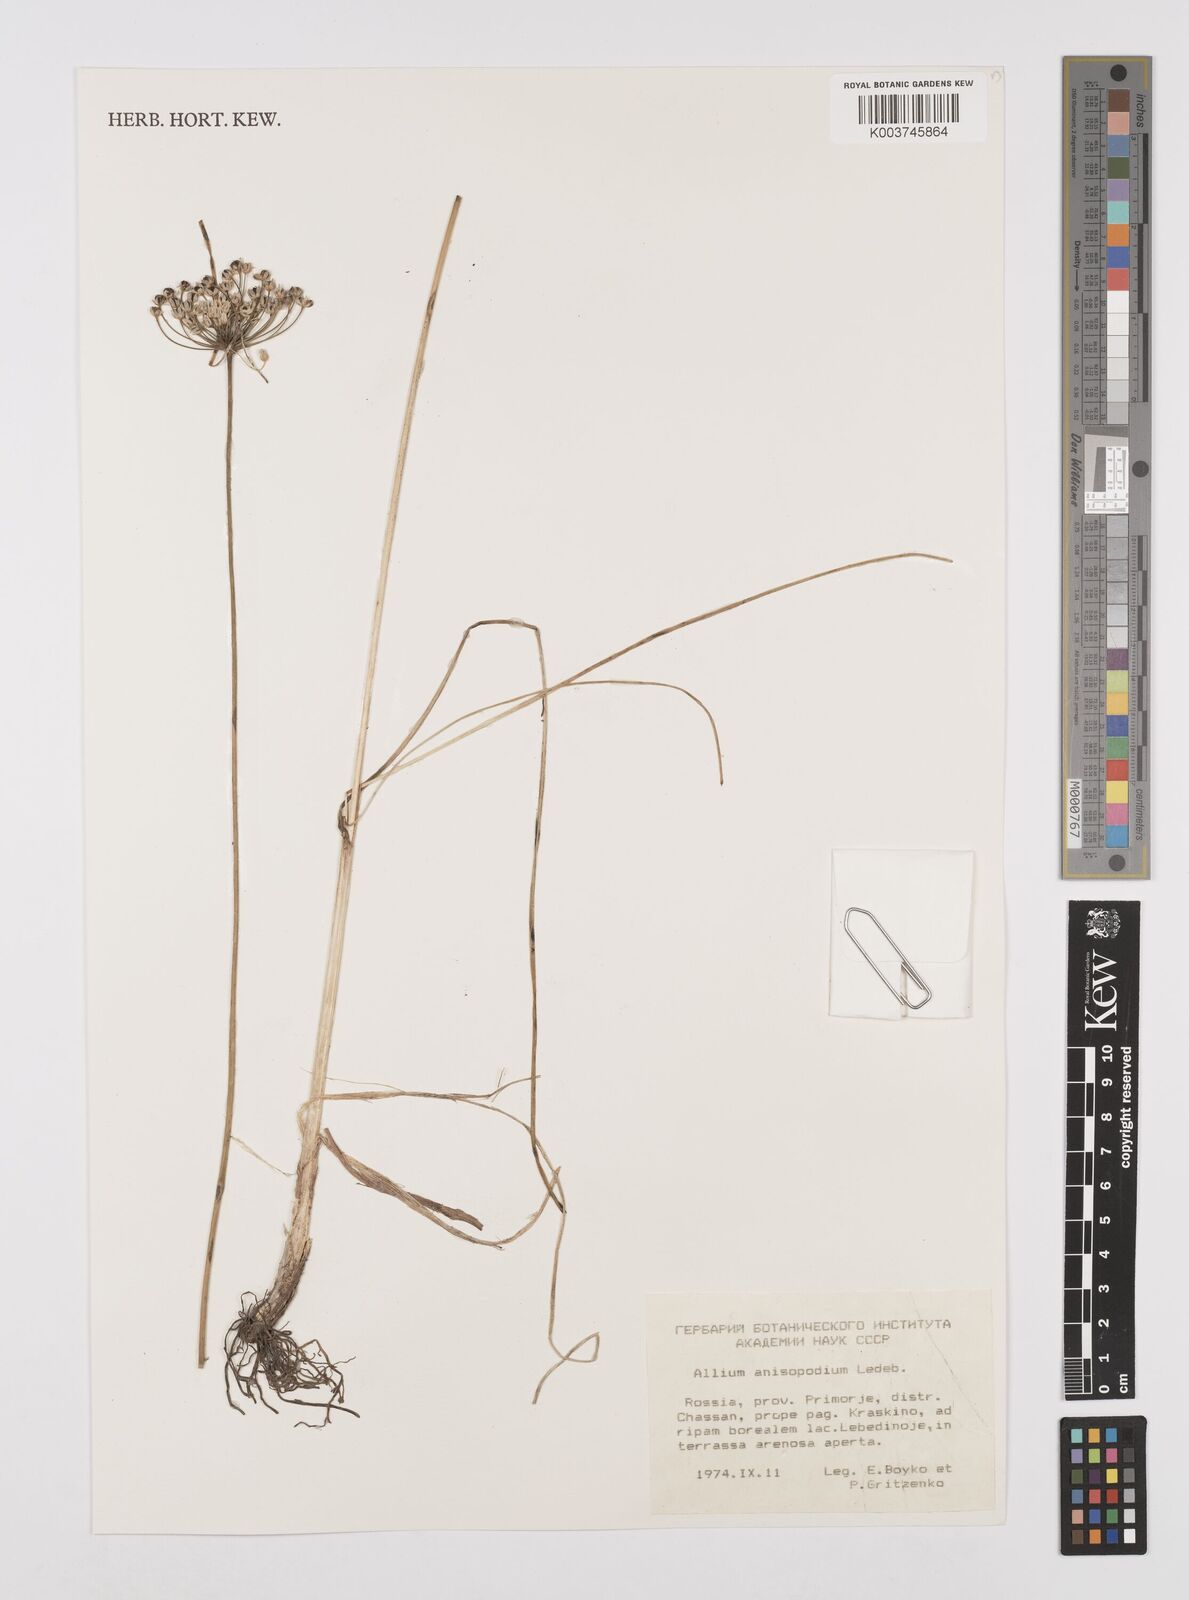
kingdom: Plantae
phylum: Tracheophyta
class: Liliopsida
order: Asparagales
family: Amaryllidaceae
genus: Allium
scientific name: Allium anisopodium
